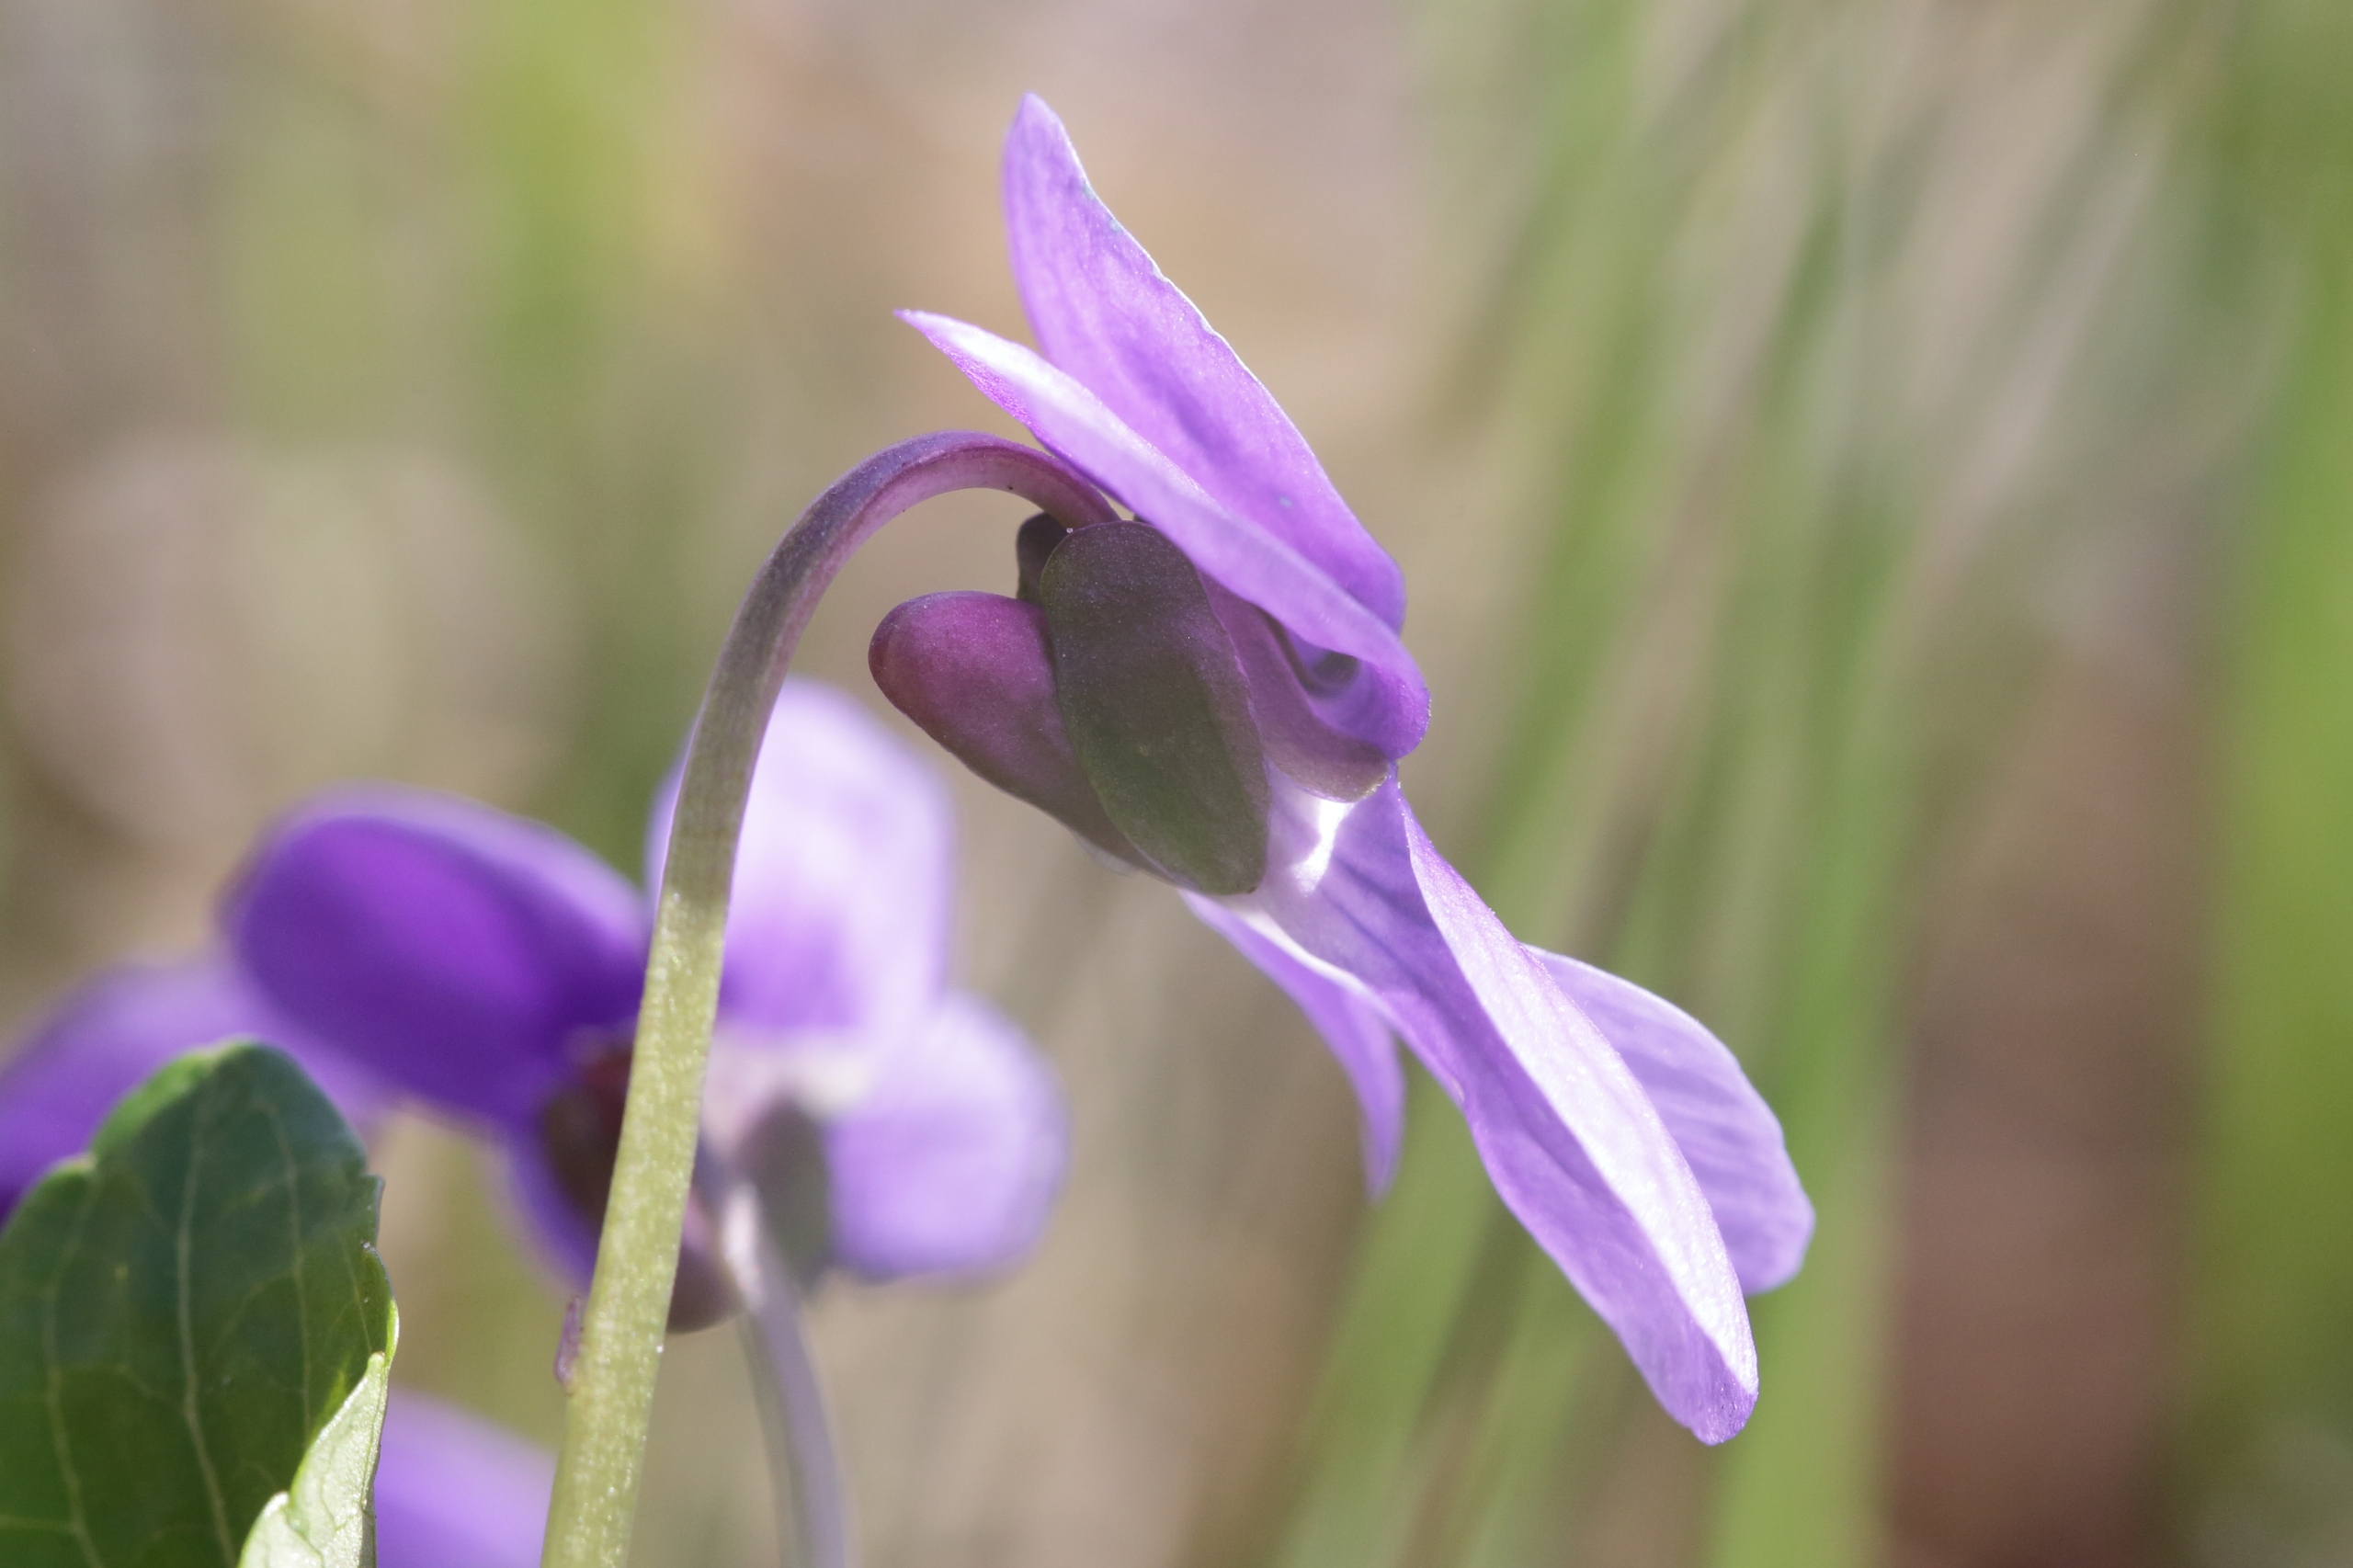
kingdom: Plantae
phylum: Tracheophyta
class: Magnoliopsida
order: Malpighiales
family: Violaceae
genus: Viola
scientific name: Viola uliginosa
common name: Sump-viol
